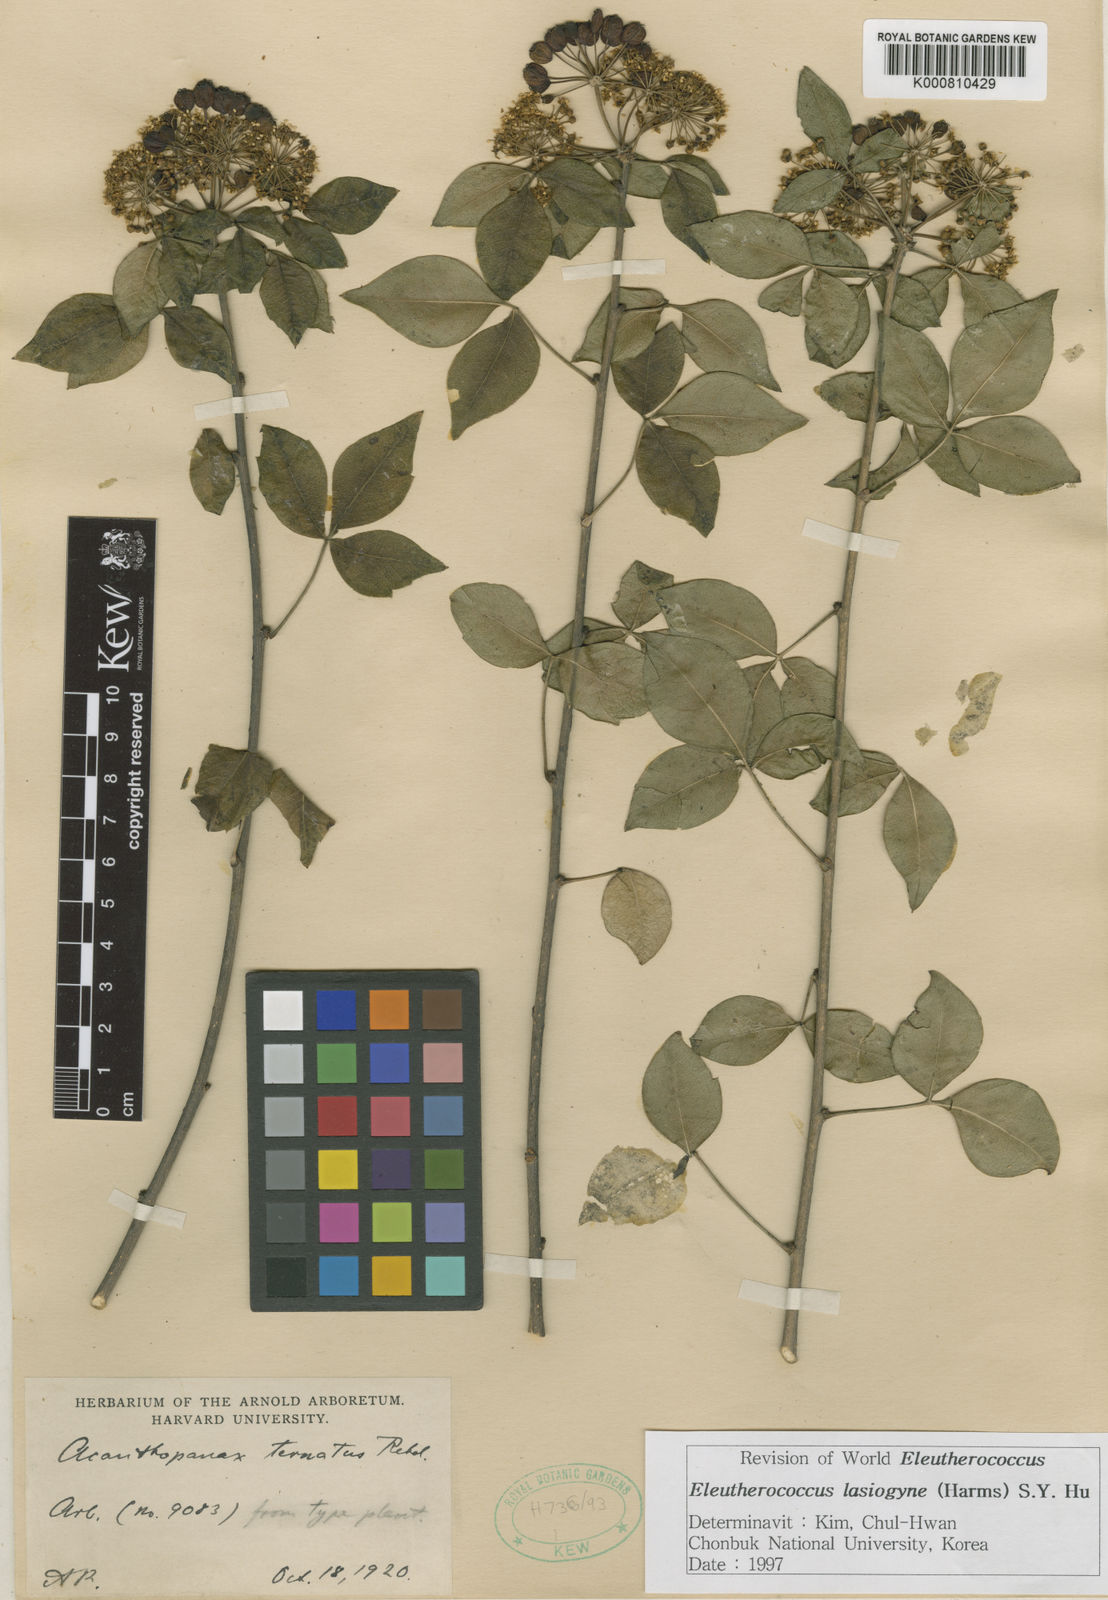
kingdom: Plantae
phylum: Tracheophyta
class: Magnoliopsida
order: Apiales
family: Araliaceae
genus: Eleutherococcus
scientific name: Eleutherococcus lasiogyne
